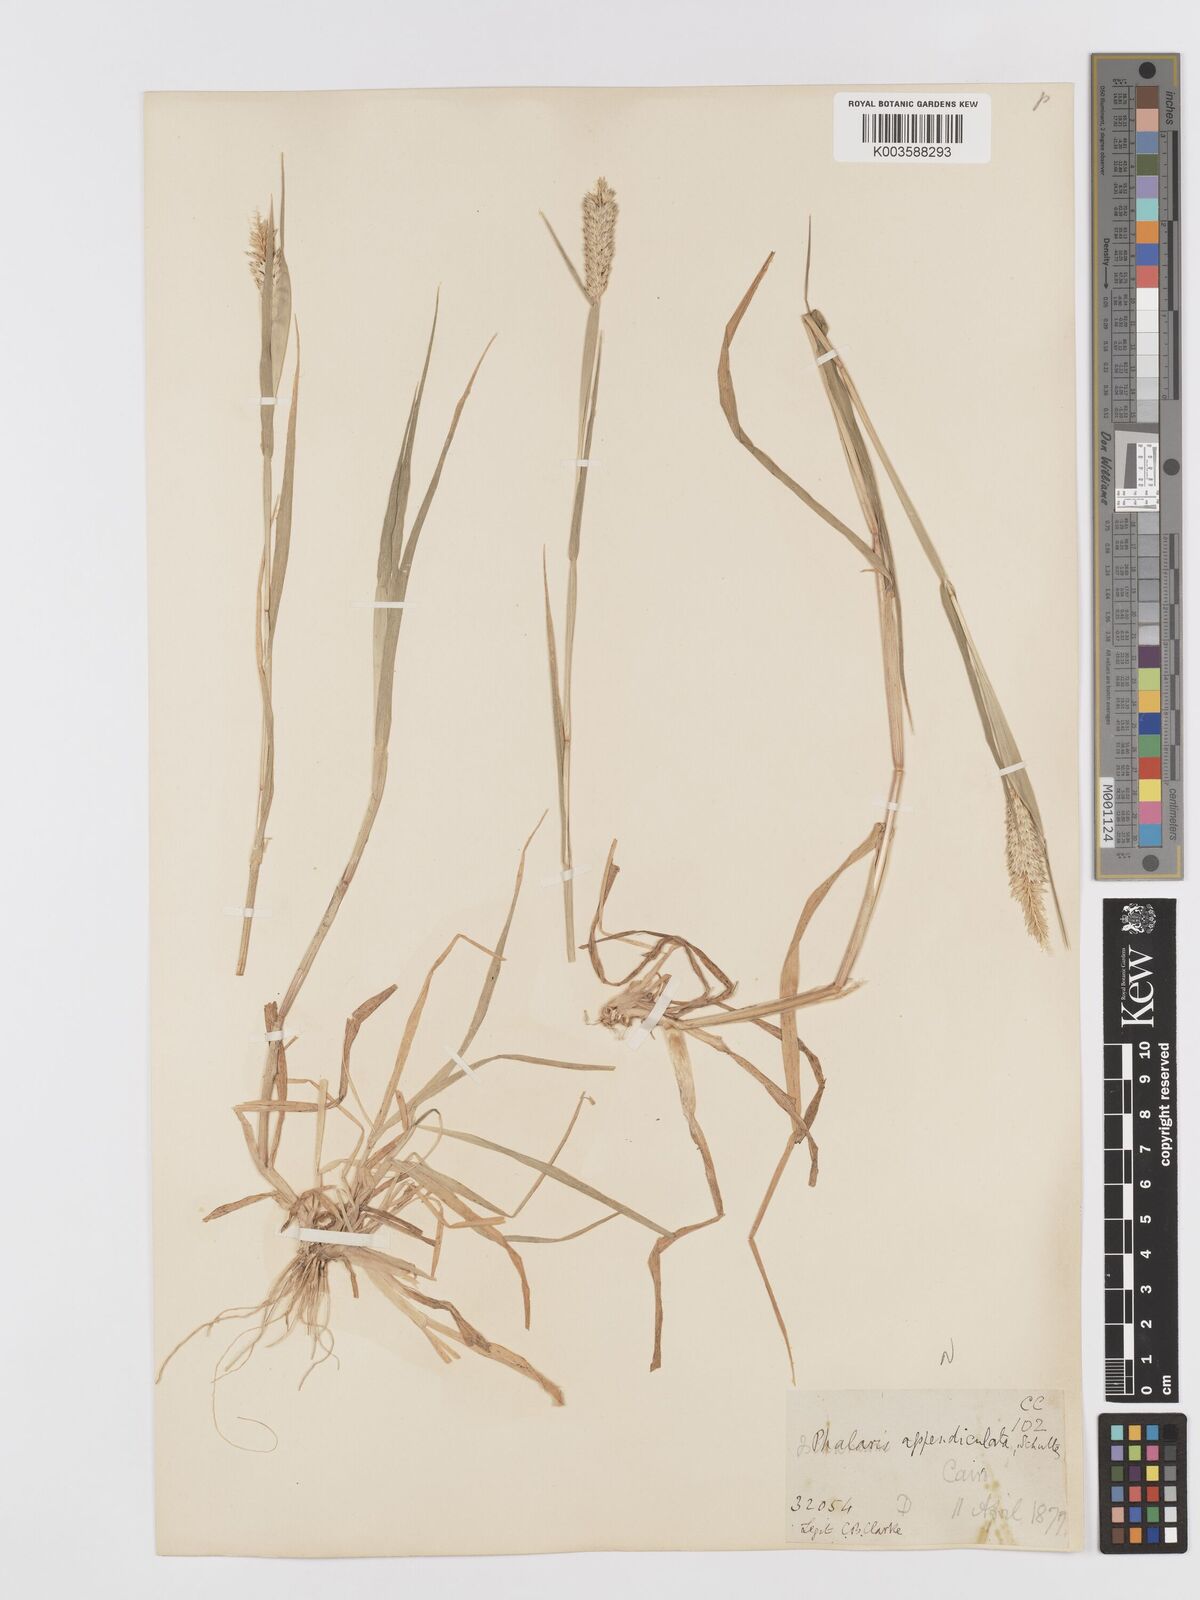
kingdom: Plantae
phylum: Tracheophyta
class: Liliopsida
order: Poales
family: Poaceae
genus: Phalaris
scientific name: Phalaris paradoxa
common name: Awned canary-grass
